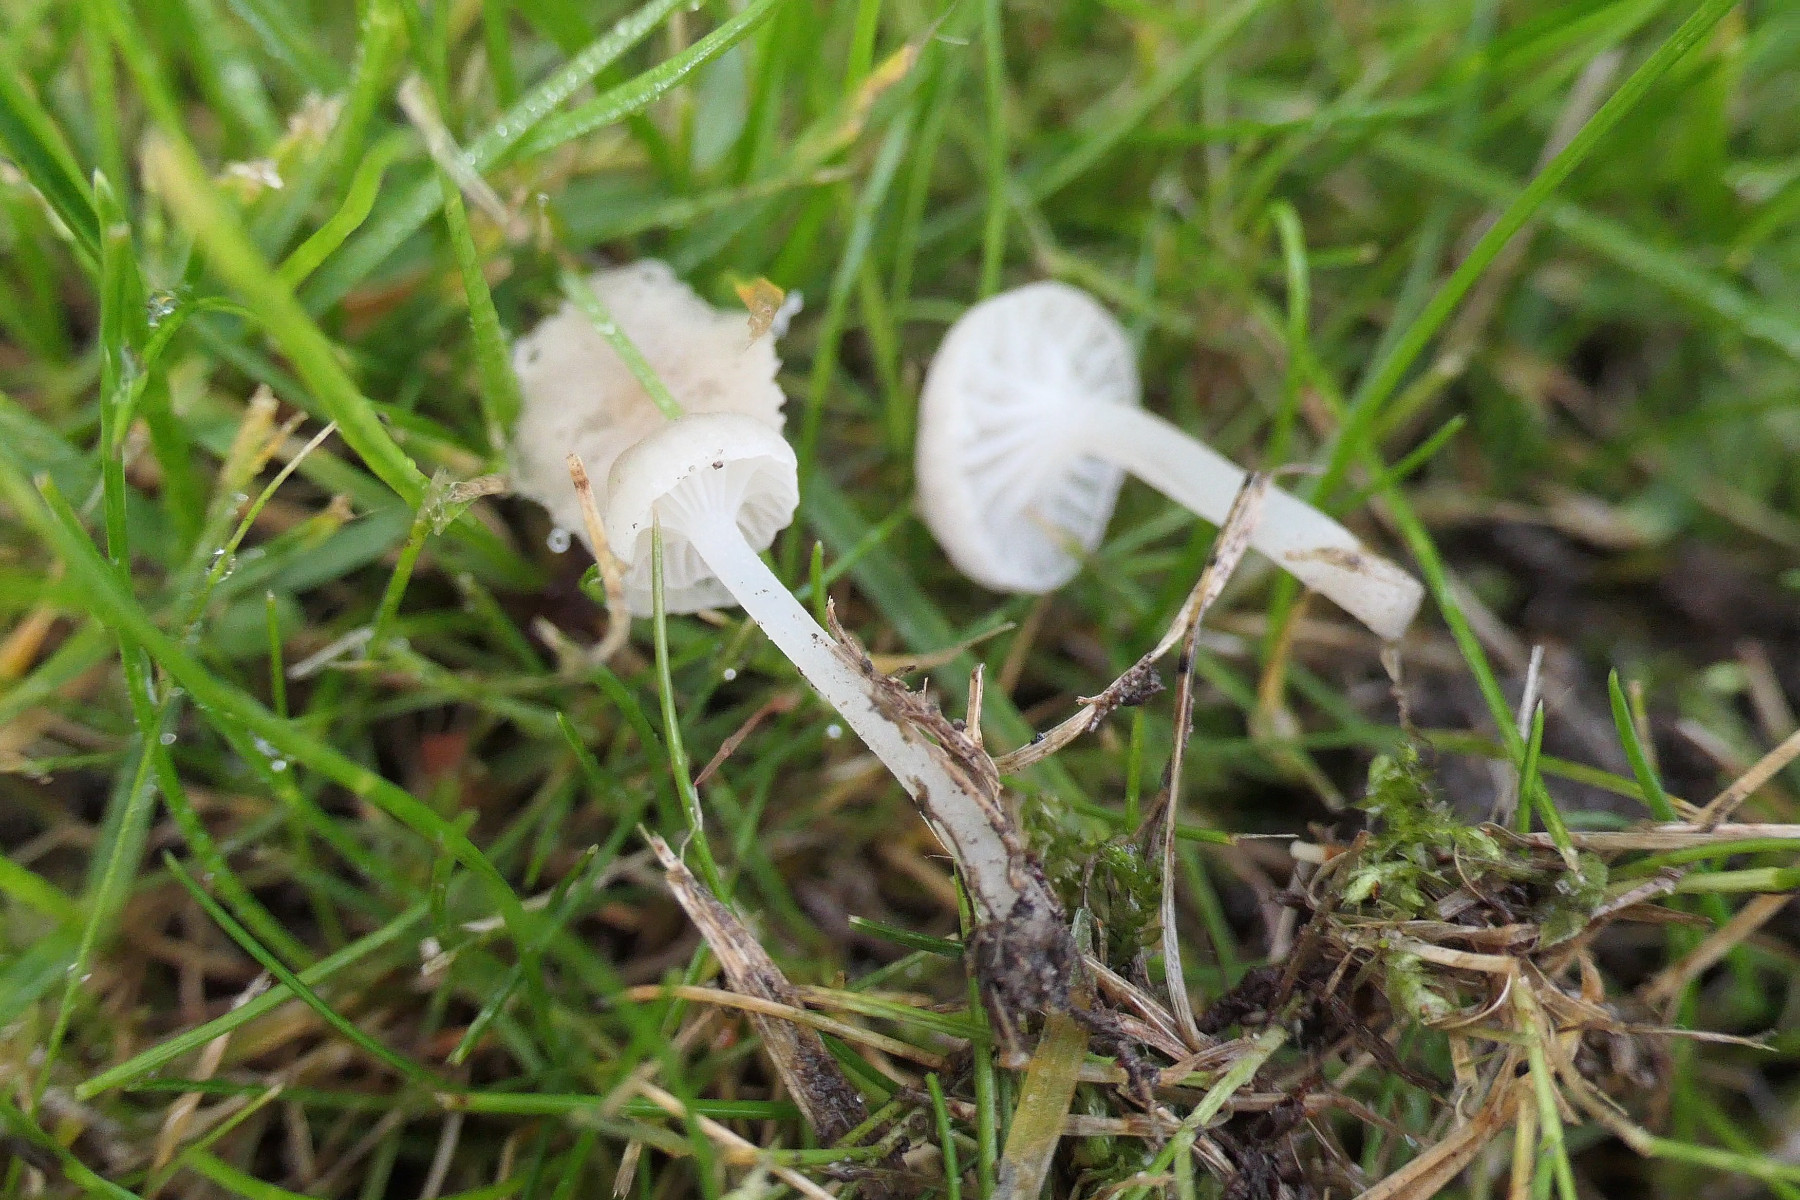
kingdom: Fungi
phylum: Basidiomycota
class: Agaricomycetes
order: Agaricales
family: Mycenaceae
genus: Hemimycena
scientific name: Hemimycena mairei
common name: voks-huesvamp
